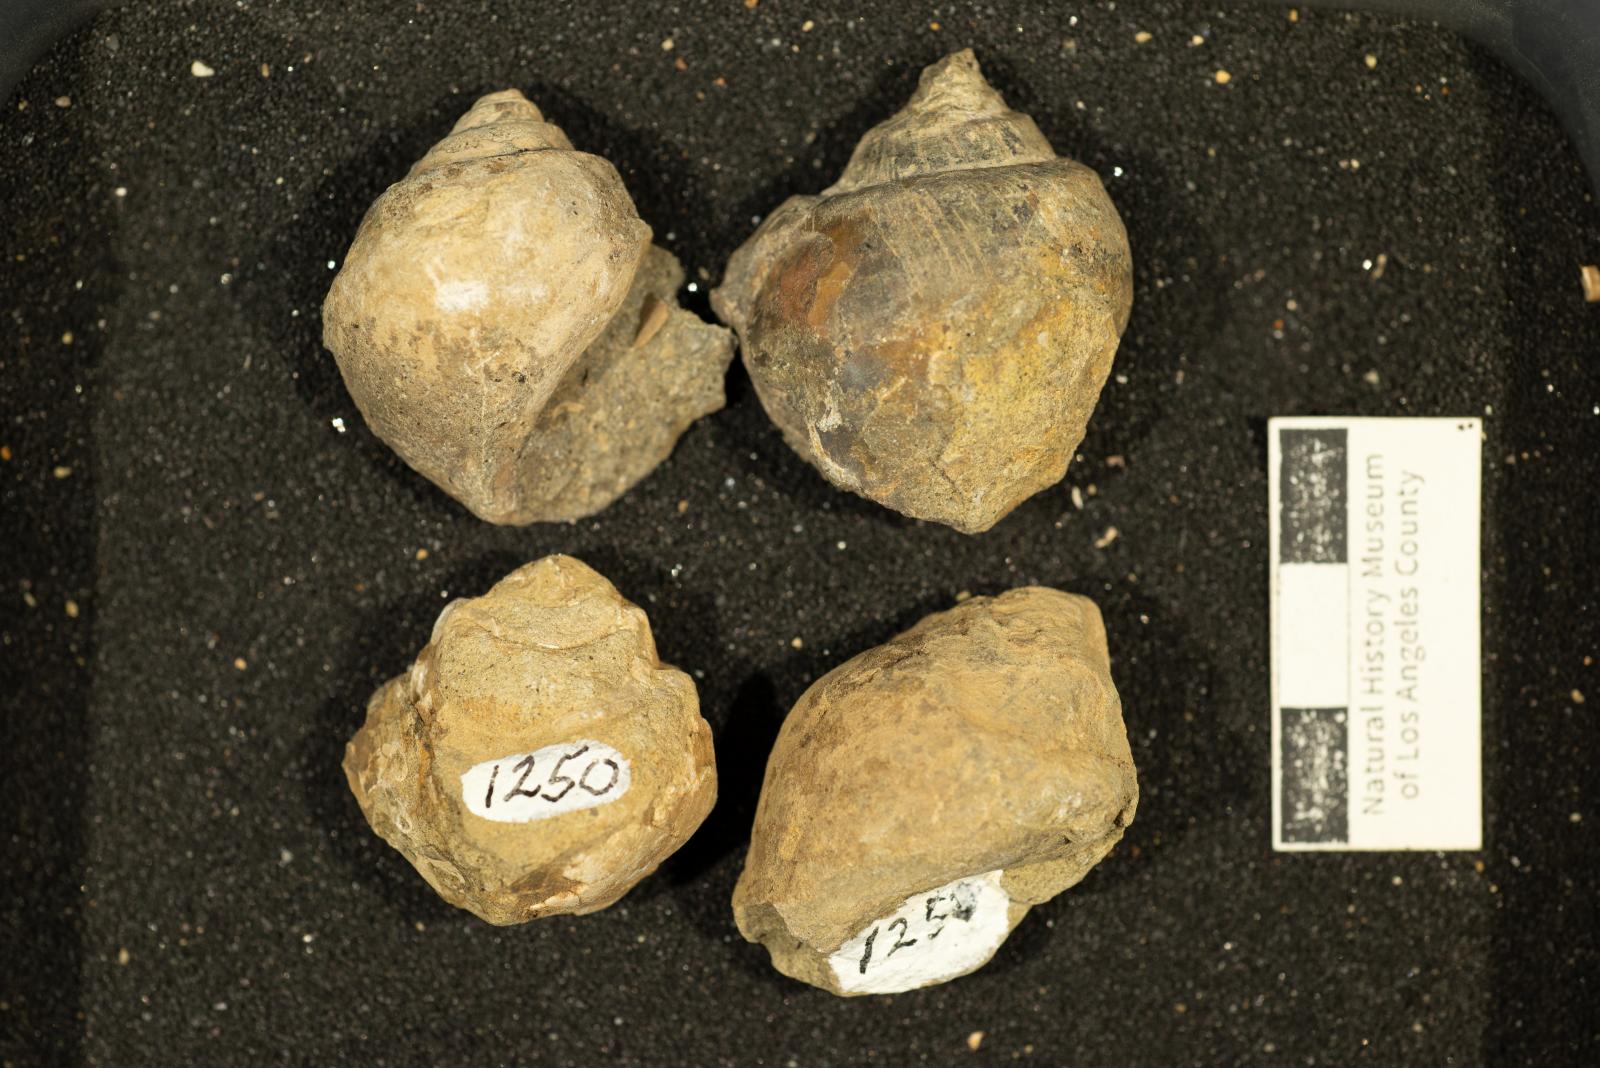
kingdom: Animalia
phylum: Mollusca
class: Gastropoda
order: Architaenioglossa
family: Ampullinidae
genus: Ampullina
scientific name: Ampullina Amauropsis pseudoalveata
